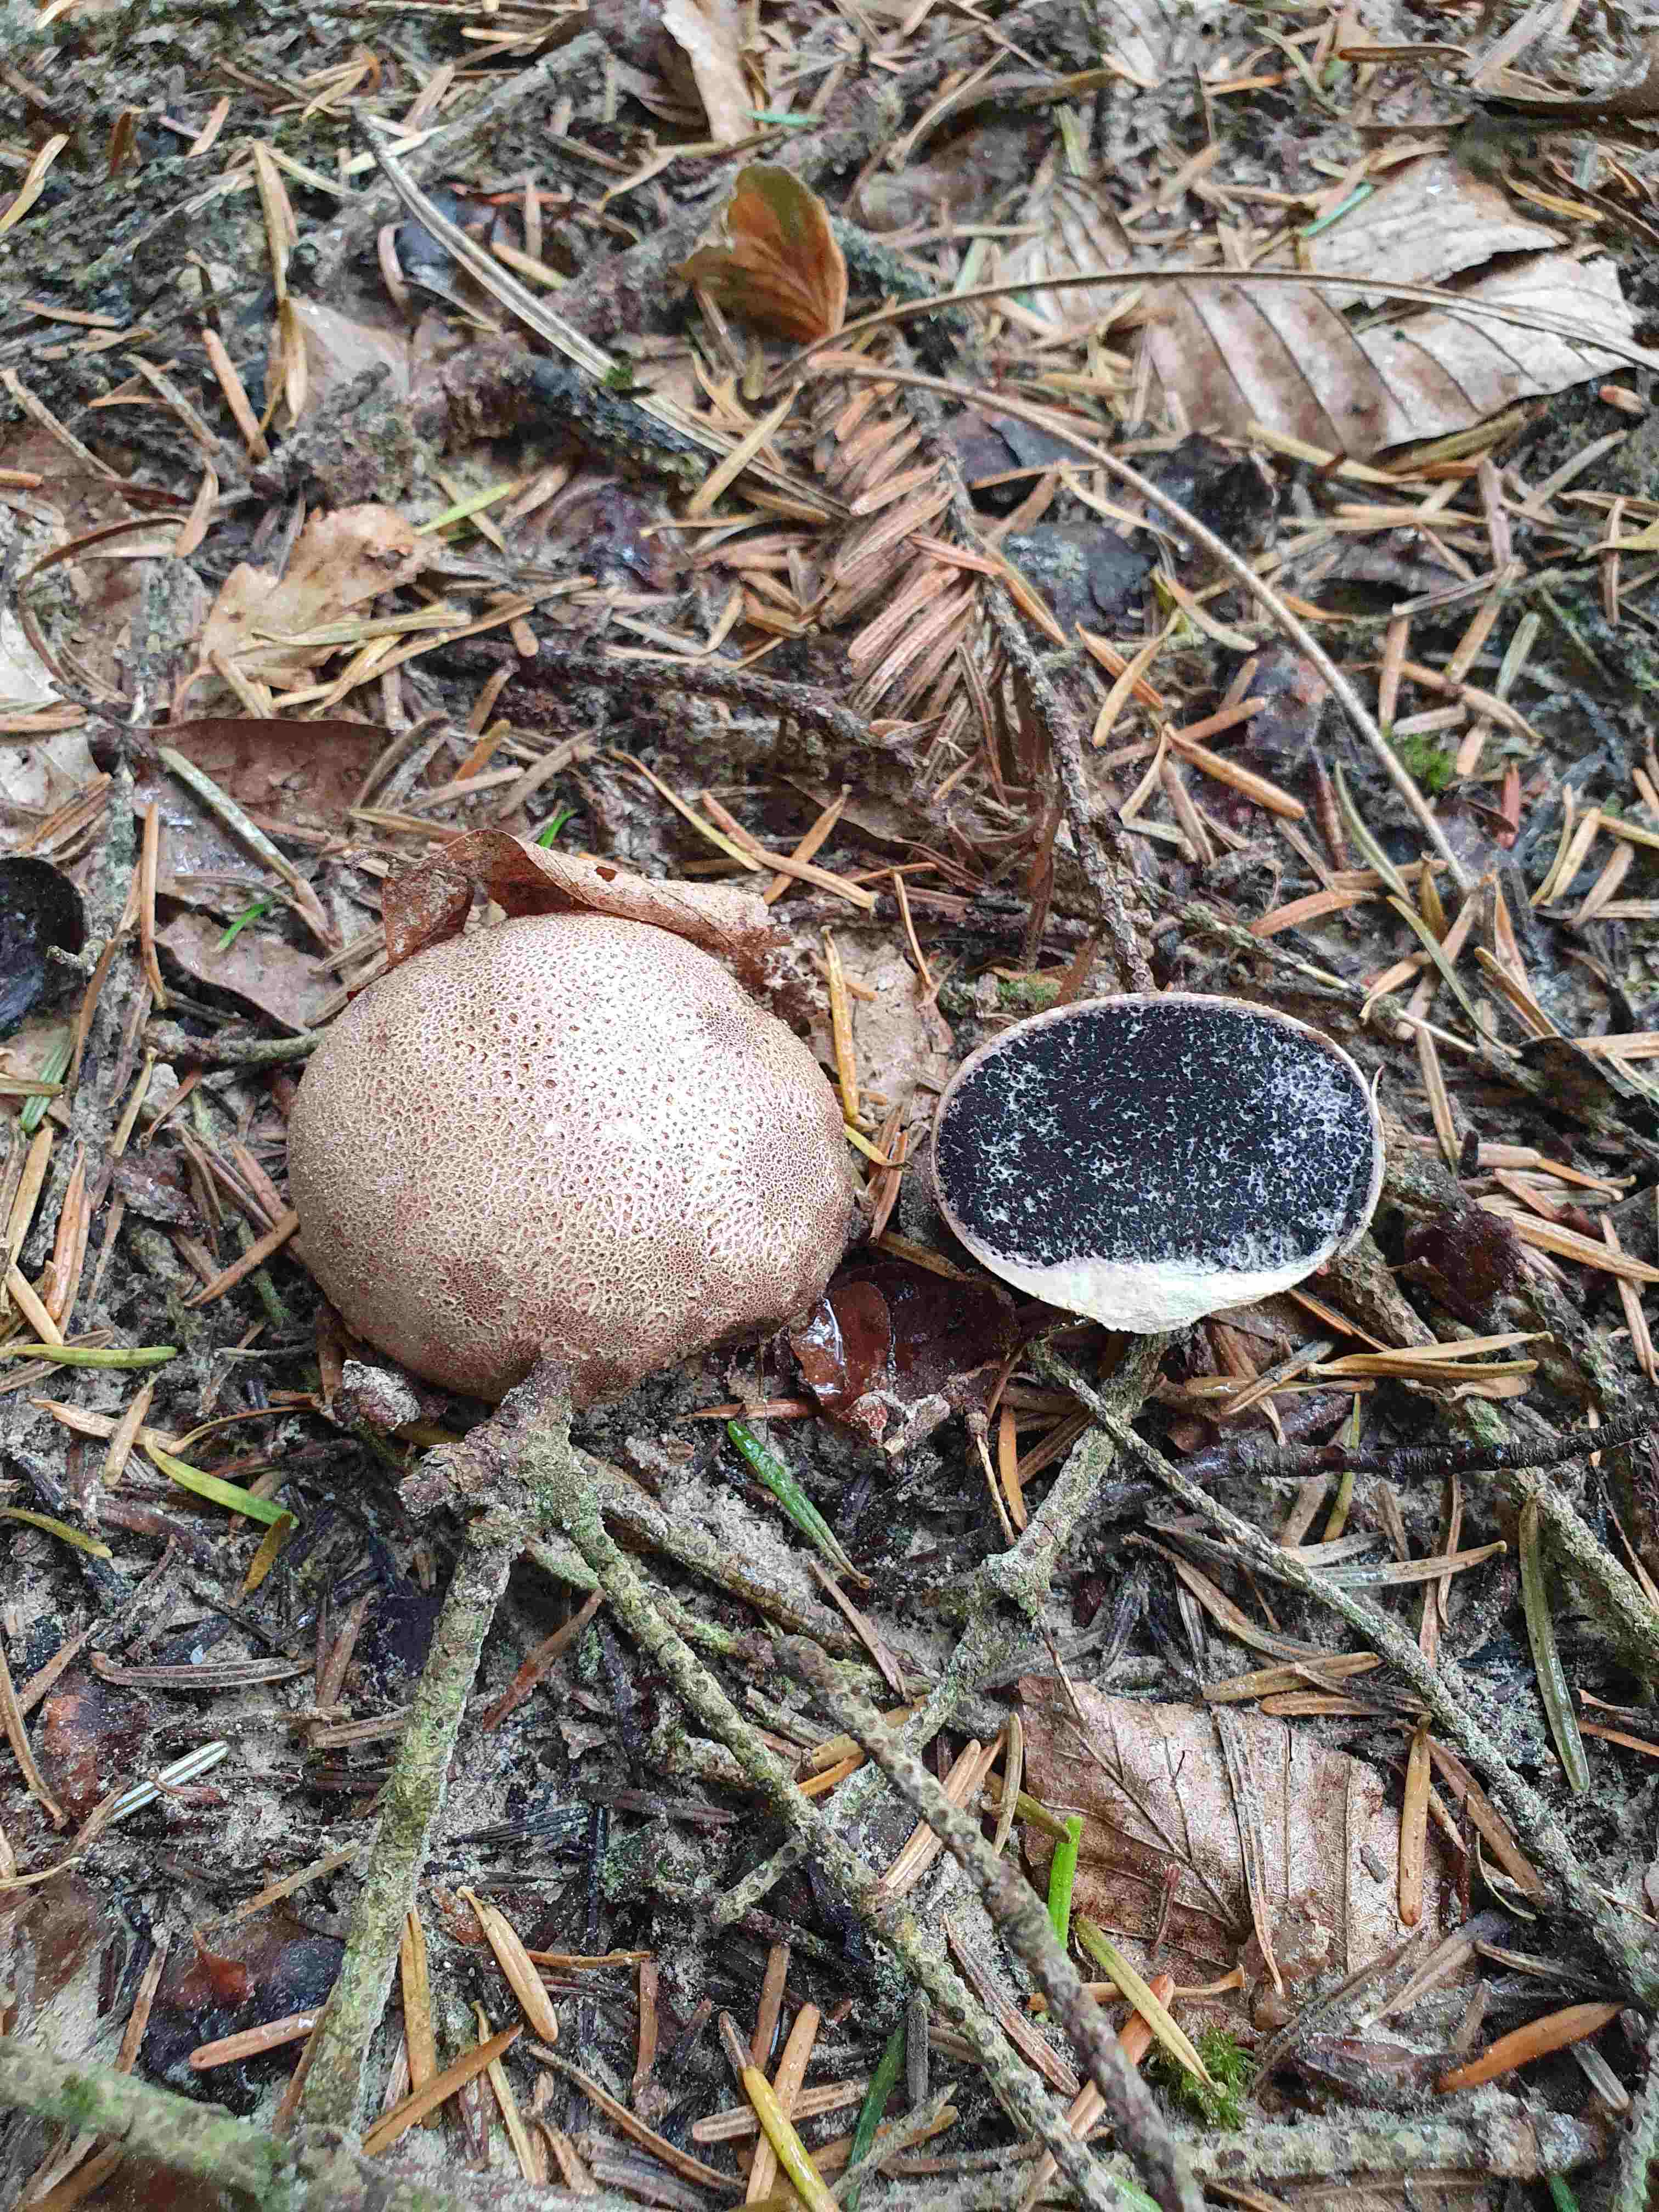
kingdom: Fungi
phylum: Basidiomycota
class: Agaricomycetes
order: Boletales
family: Sclerodermataceae
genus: Scleroderma
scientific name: Scleroderma citrinum
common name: almindelig bruskbold
